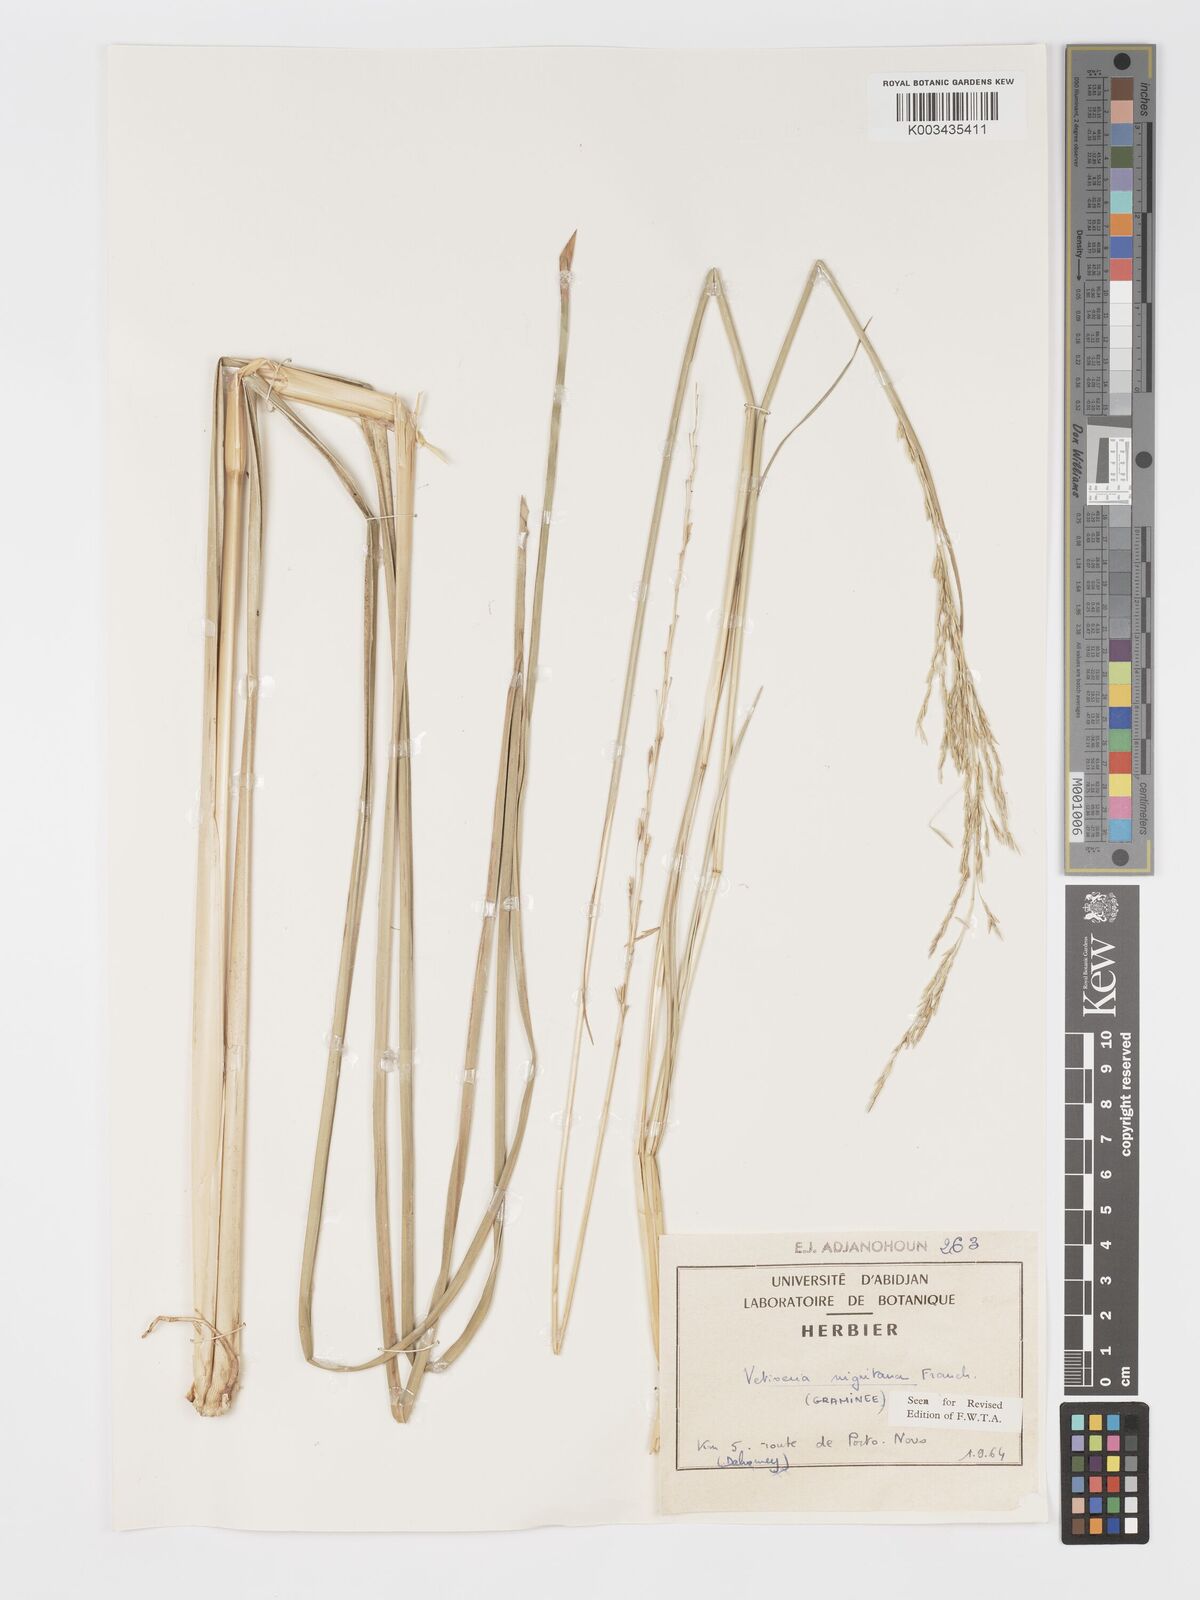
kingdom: Plantae
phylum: Tracheophyta
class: Liliopsida
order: Poales
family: Poaceae
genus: Chrysopogon
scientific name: Chrysopogon nigritanus
